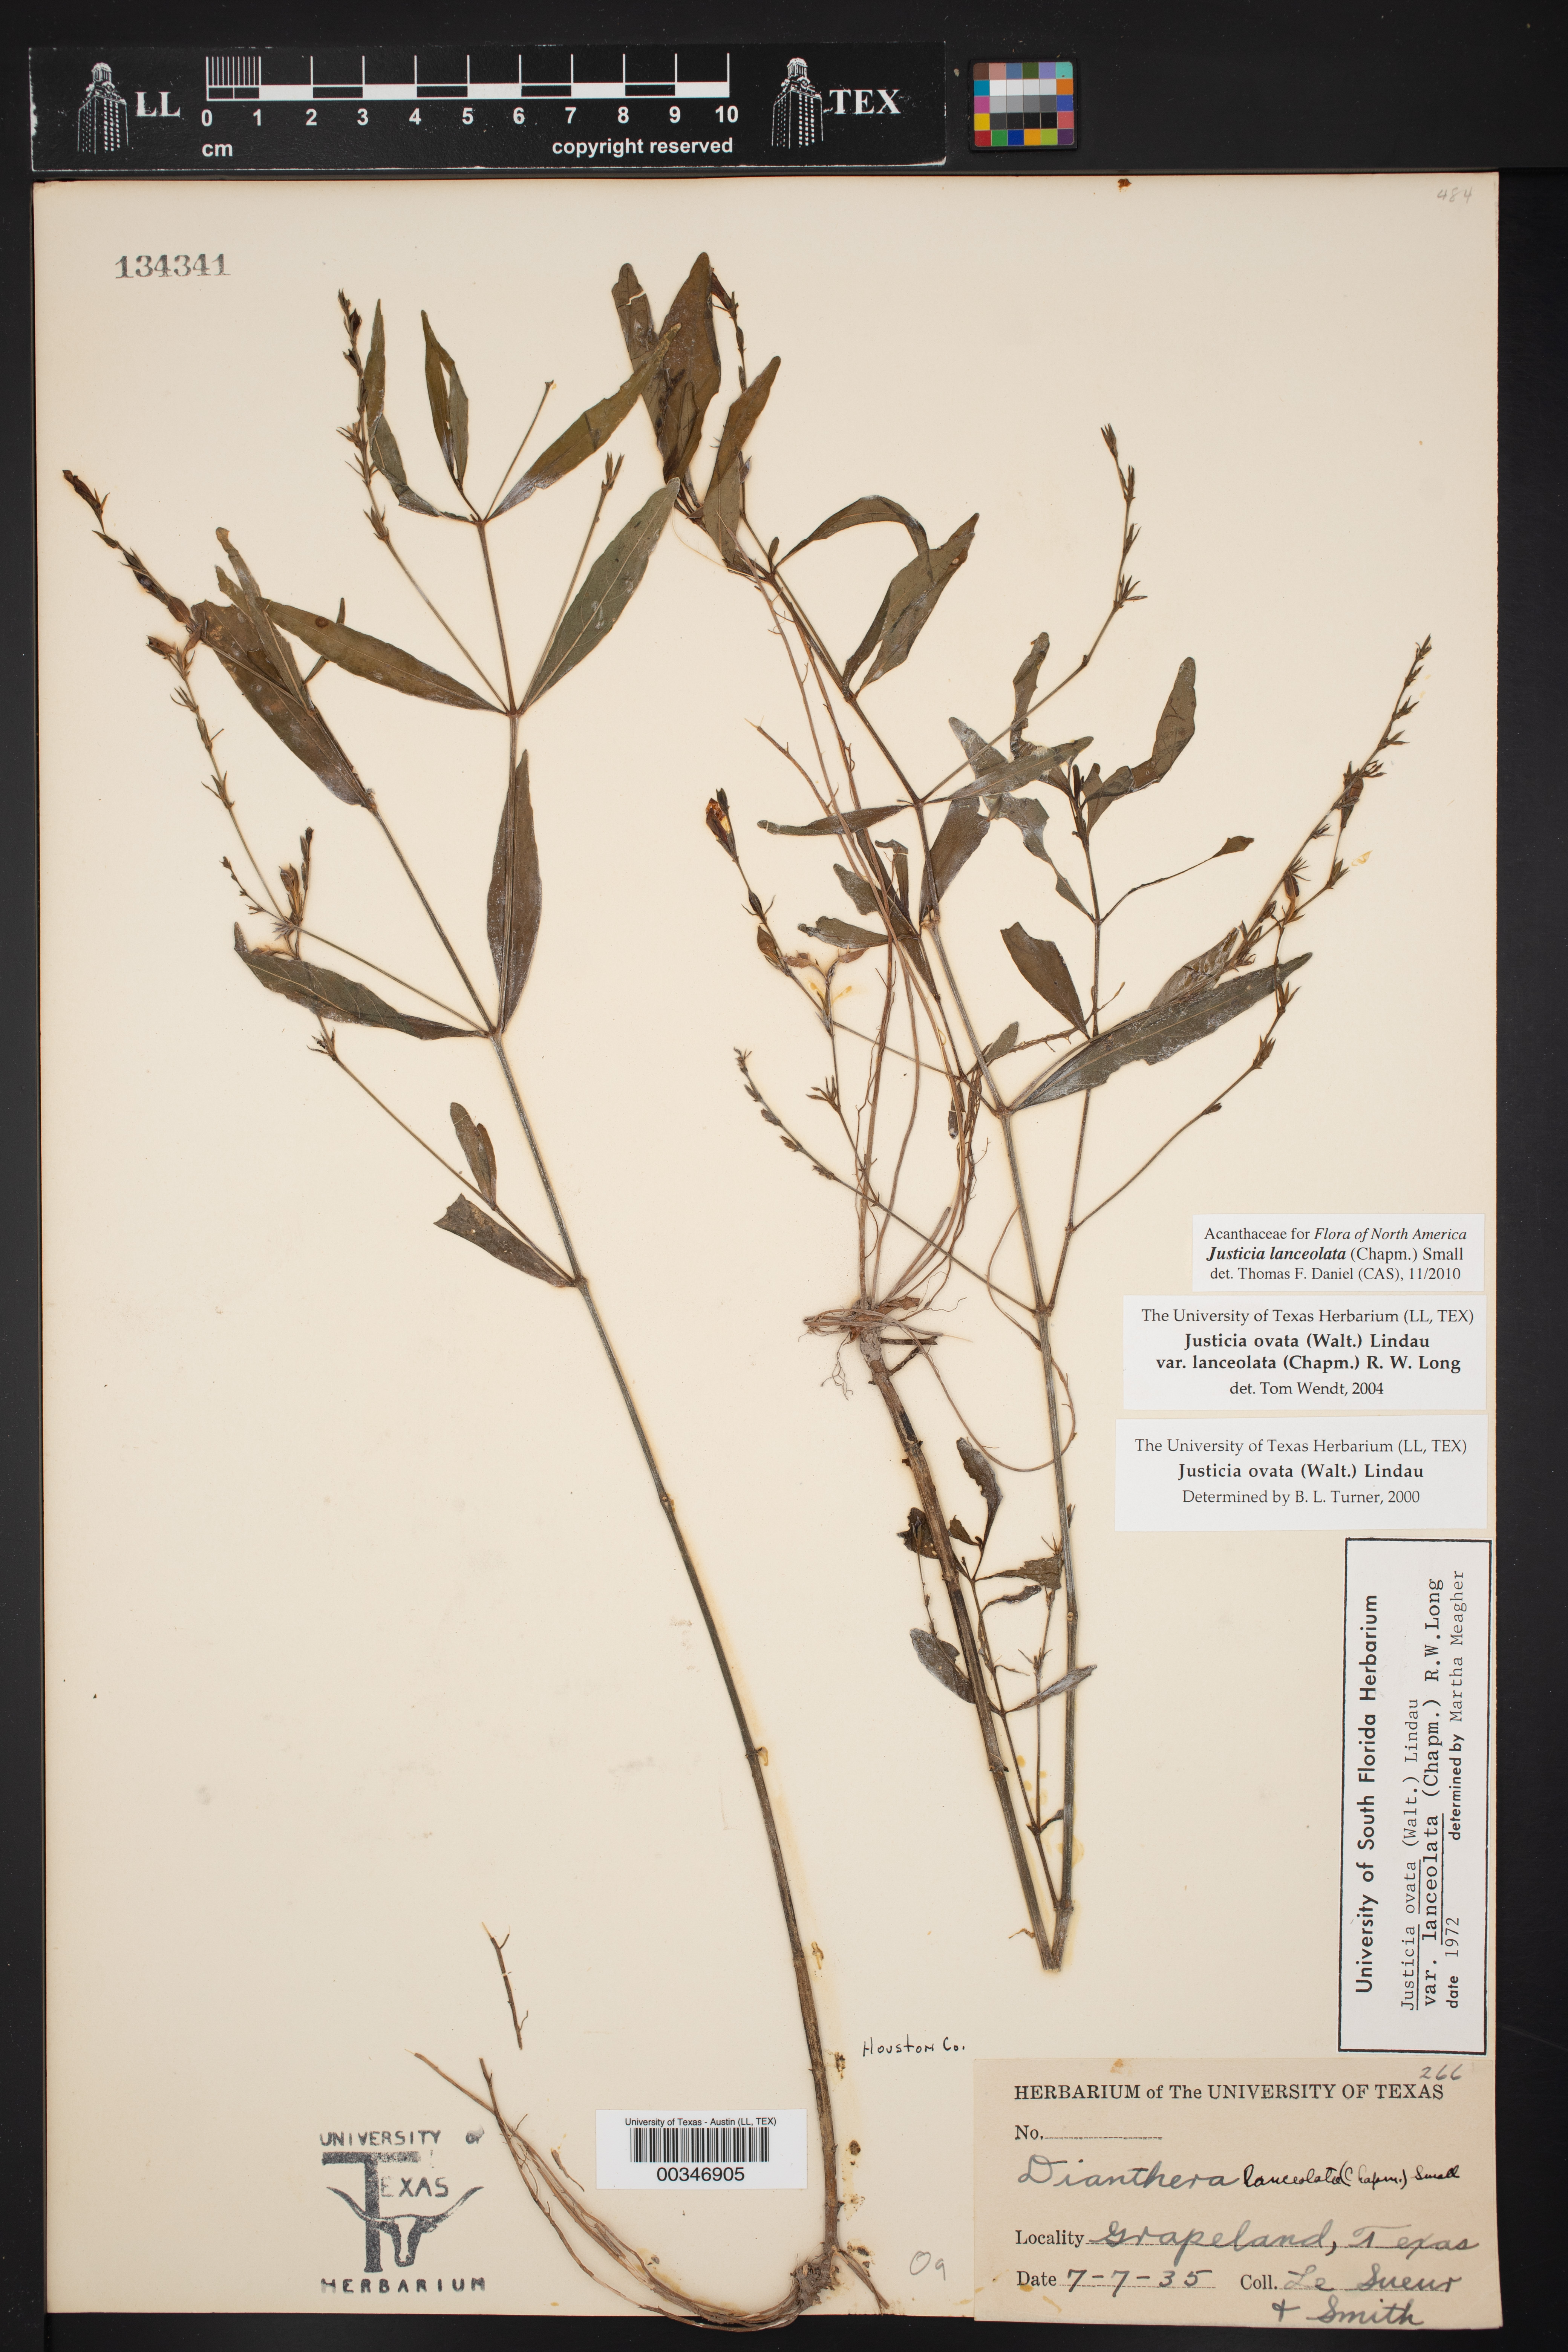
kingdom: Plantae
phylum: Tracheophyta
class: Magnoliopsida
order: Lamiales
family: Acanthaceae
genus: Justicia
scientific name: Justicia lanceolata
